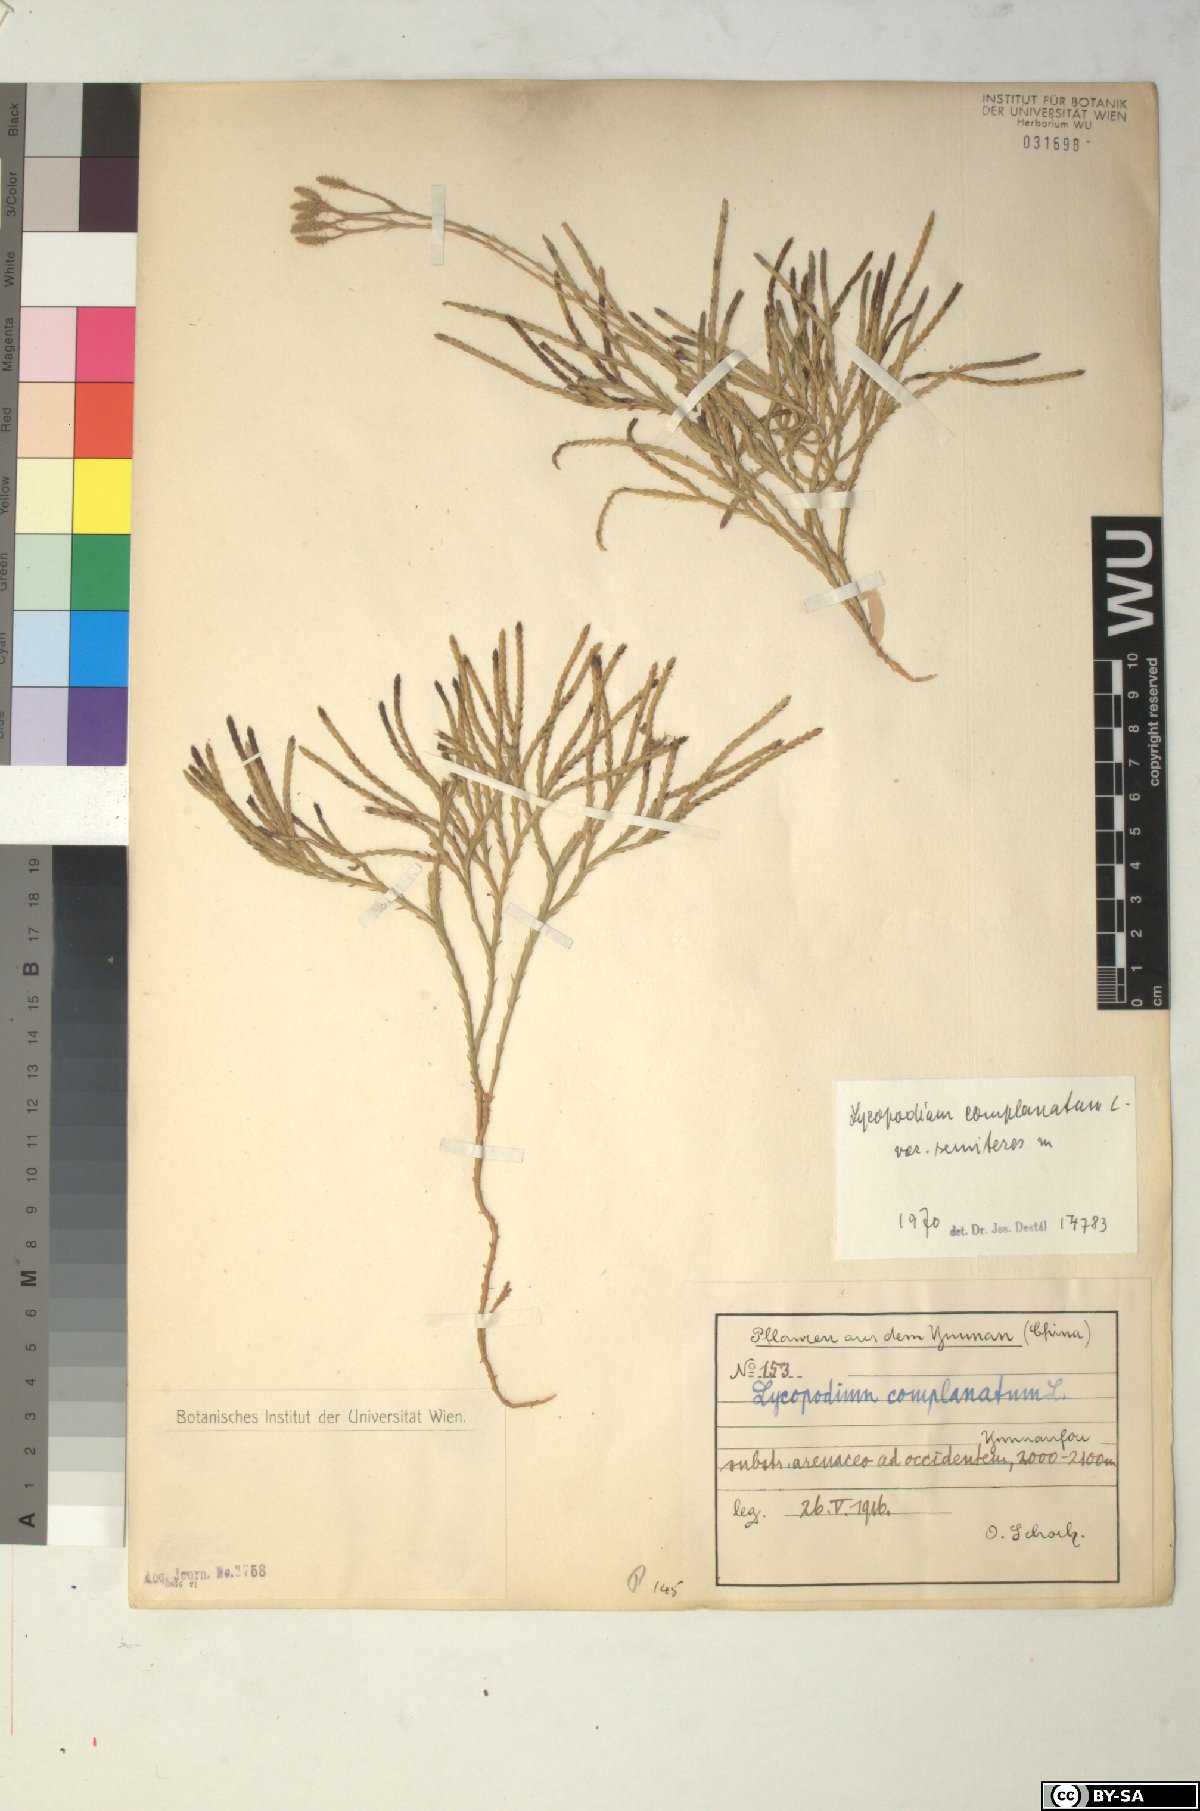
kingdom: Plantae
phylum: Tracheophyta
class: Lycopodiopsida
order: Lycopodiales
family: Lycopodiaceae
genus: Diphasiastrum
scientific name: Diphasiastrum complanatum
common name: Northern running-pine
